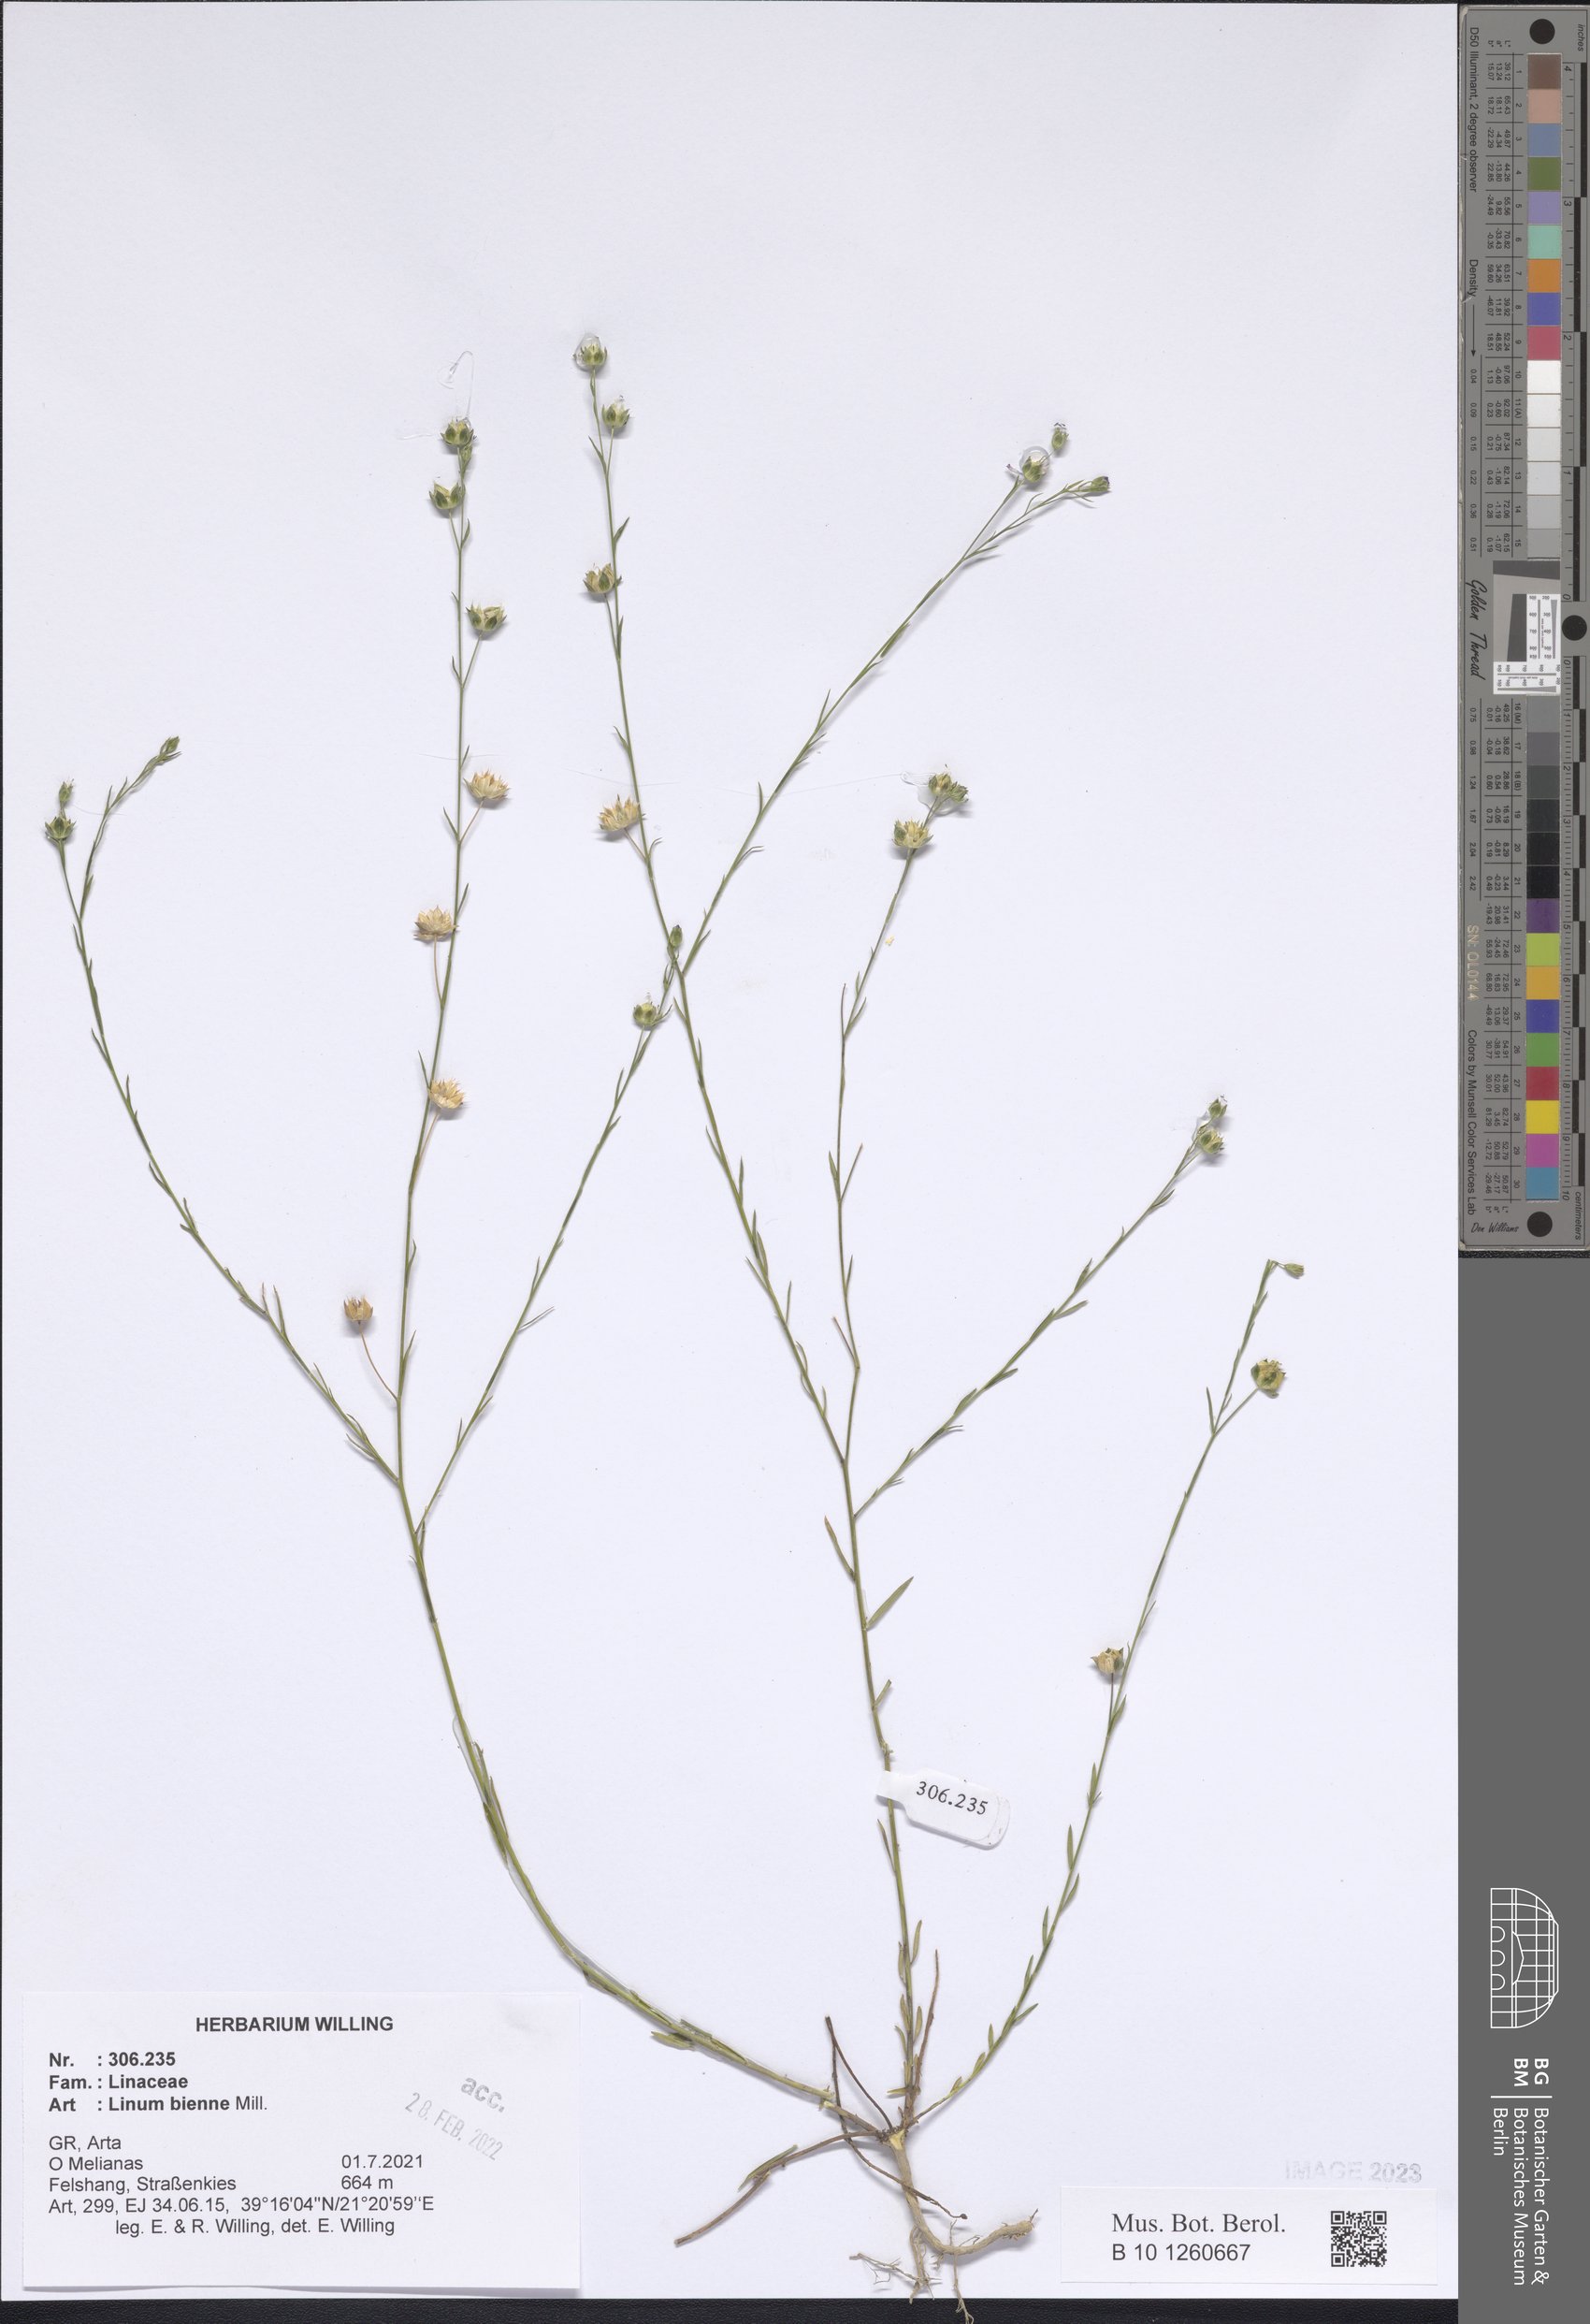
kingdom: Plantae
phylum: Tracheophyta
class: Magnoliopsida
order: Malpighiales
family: Linaceae
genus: Linum
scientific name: Linum bienne
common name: Pale flax
